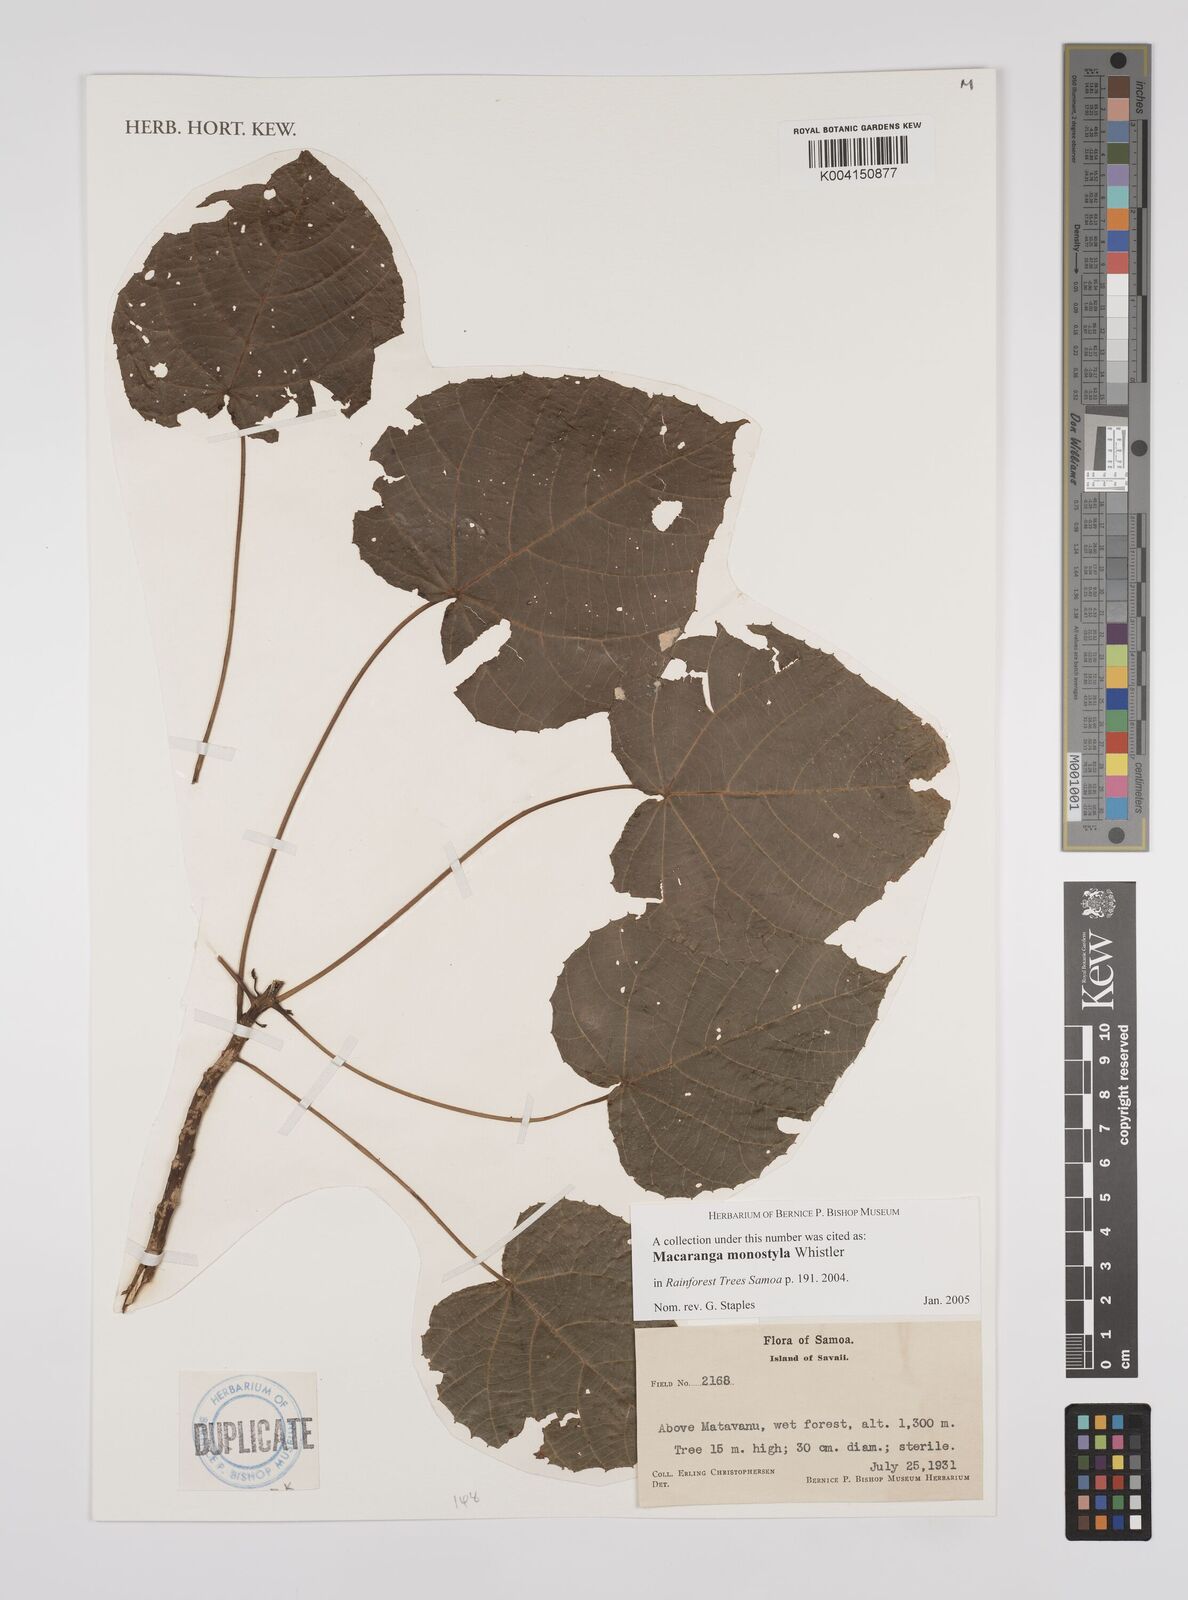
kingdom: Plantae
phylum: Tracheophyta
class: Magnoliopsida
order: Malpighiales
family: Euphorbiaceae
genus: Macaranga
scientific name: Macaranga monostyla
